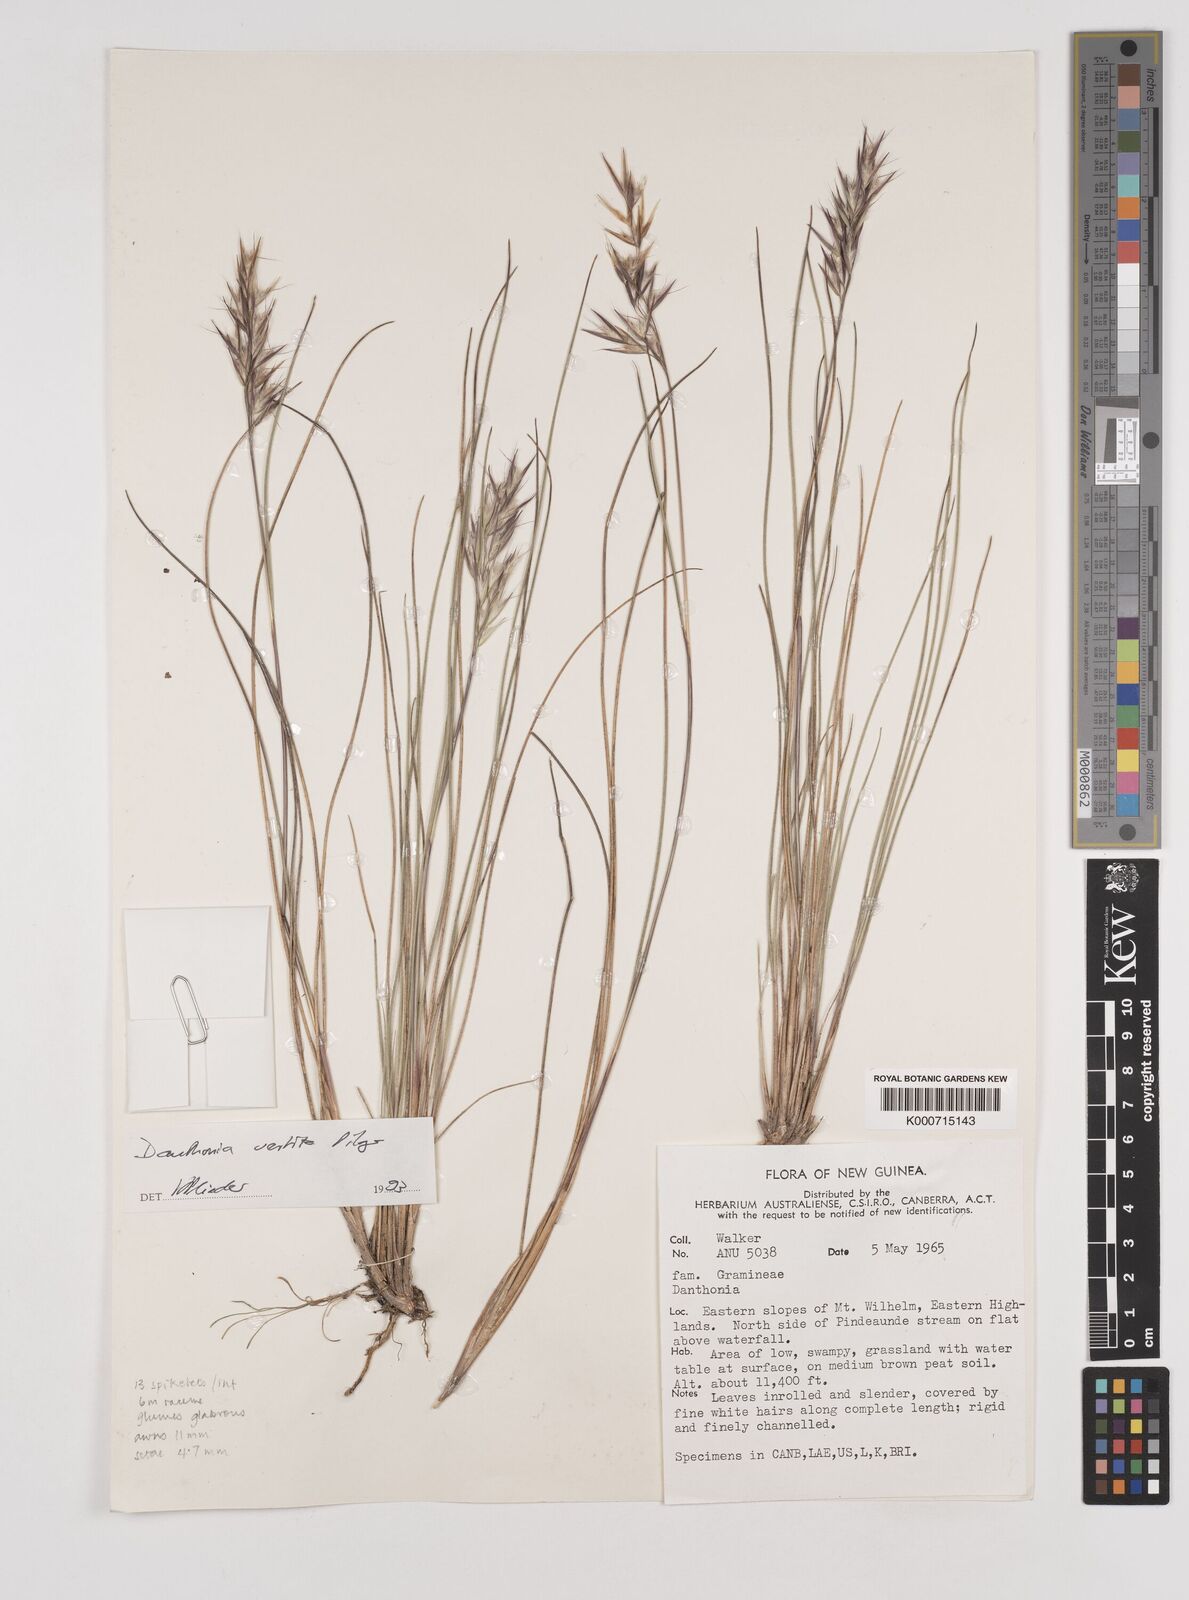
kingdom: Plantae
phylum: Tracheophyta
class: Liliopsida
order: Poales
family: Poaceae
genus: Rytidosperma
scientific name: Rytidosperma vestitum
